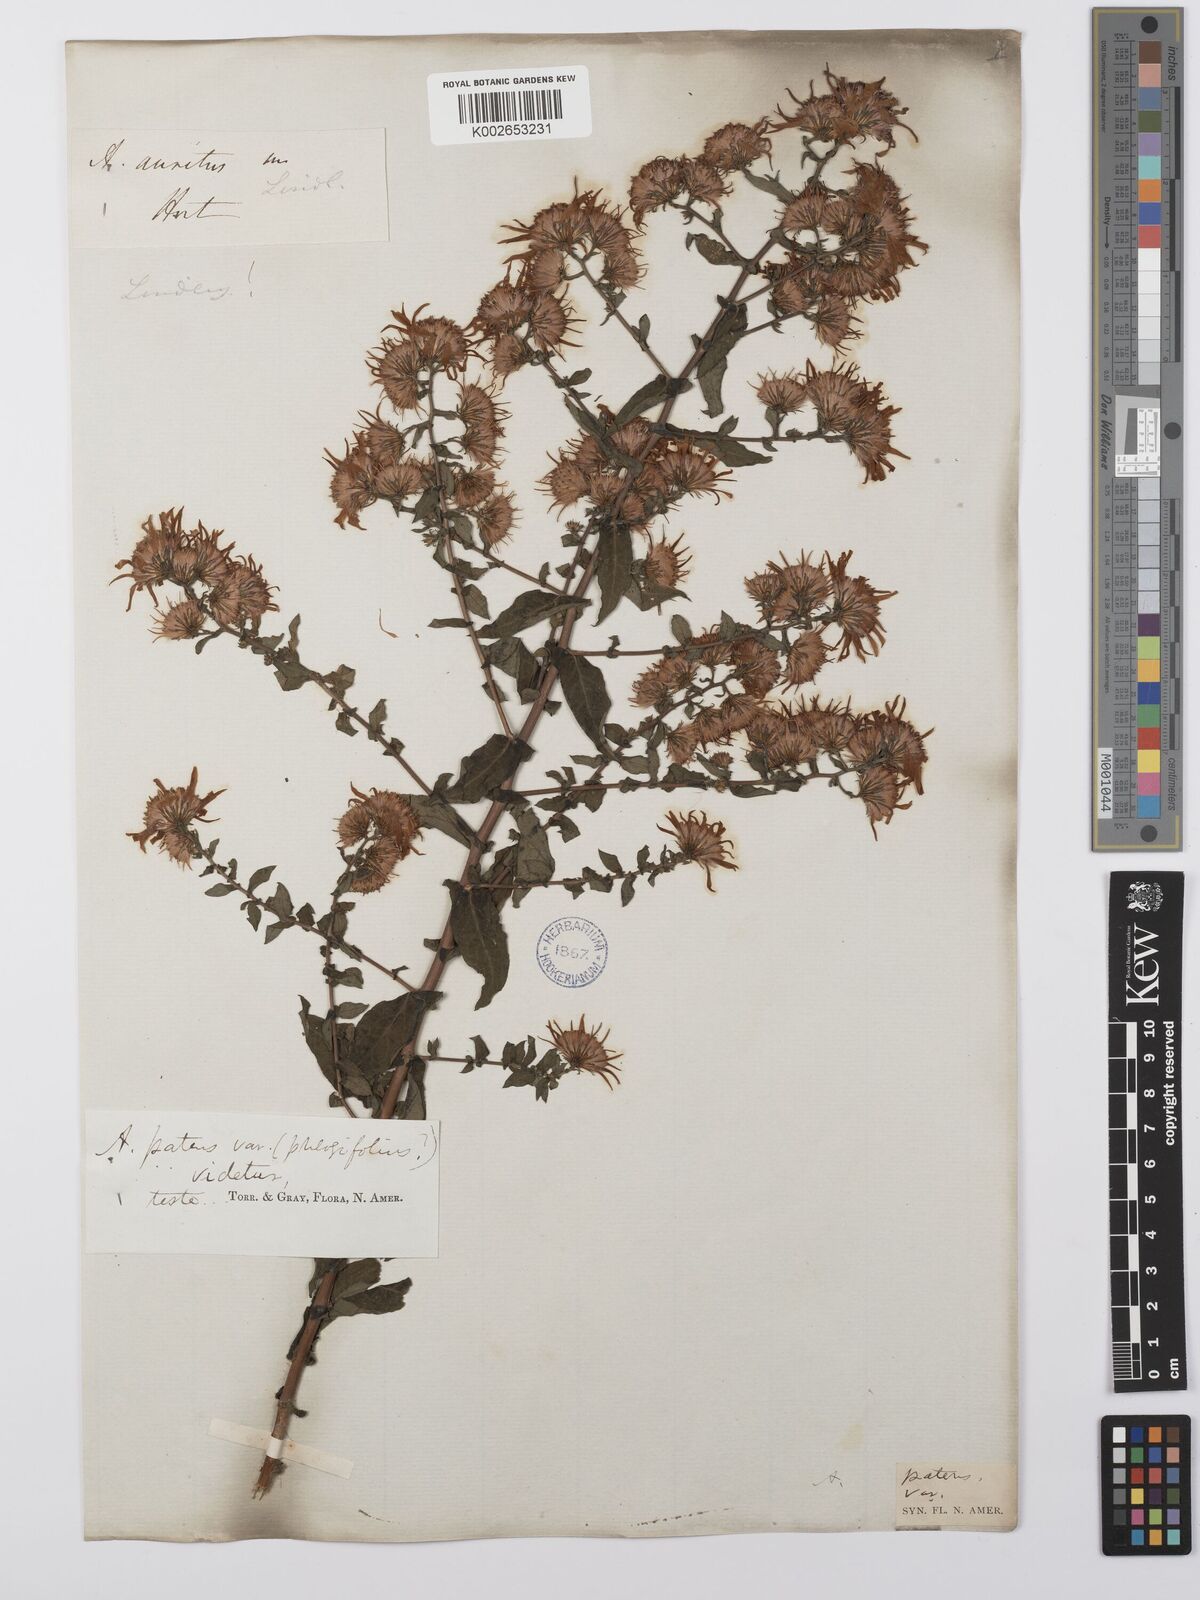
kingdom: Plantae
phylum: Tracheophyta
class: Magnoliopsida
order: Asterales
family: Asteraceae
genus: Symphyotrichum
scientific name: Symphyotrichum phlogifolium
